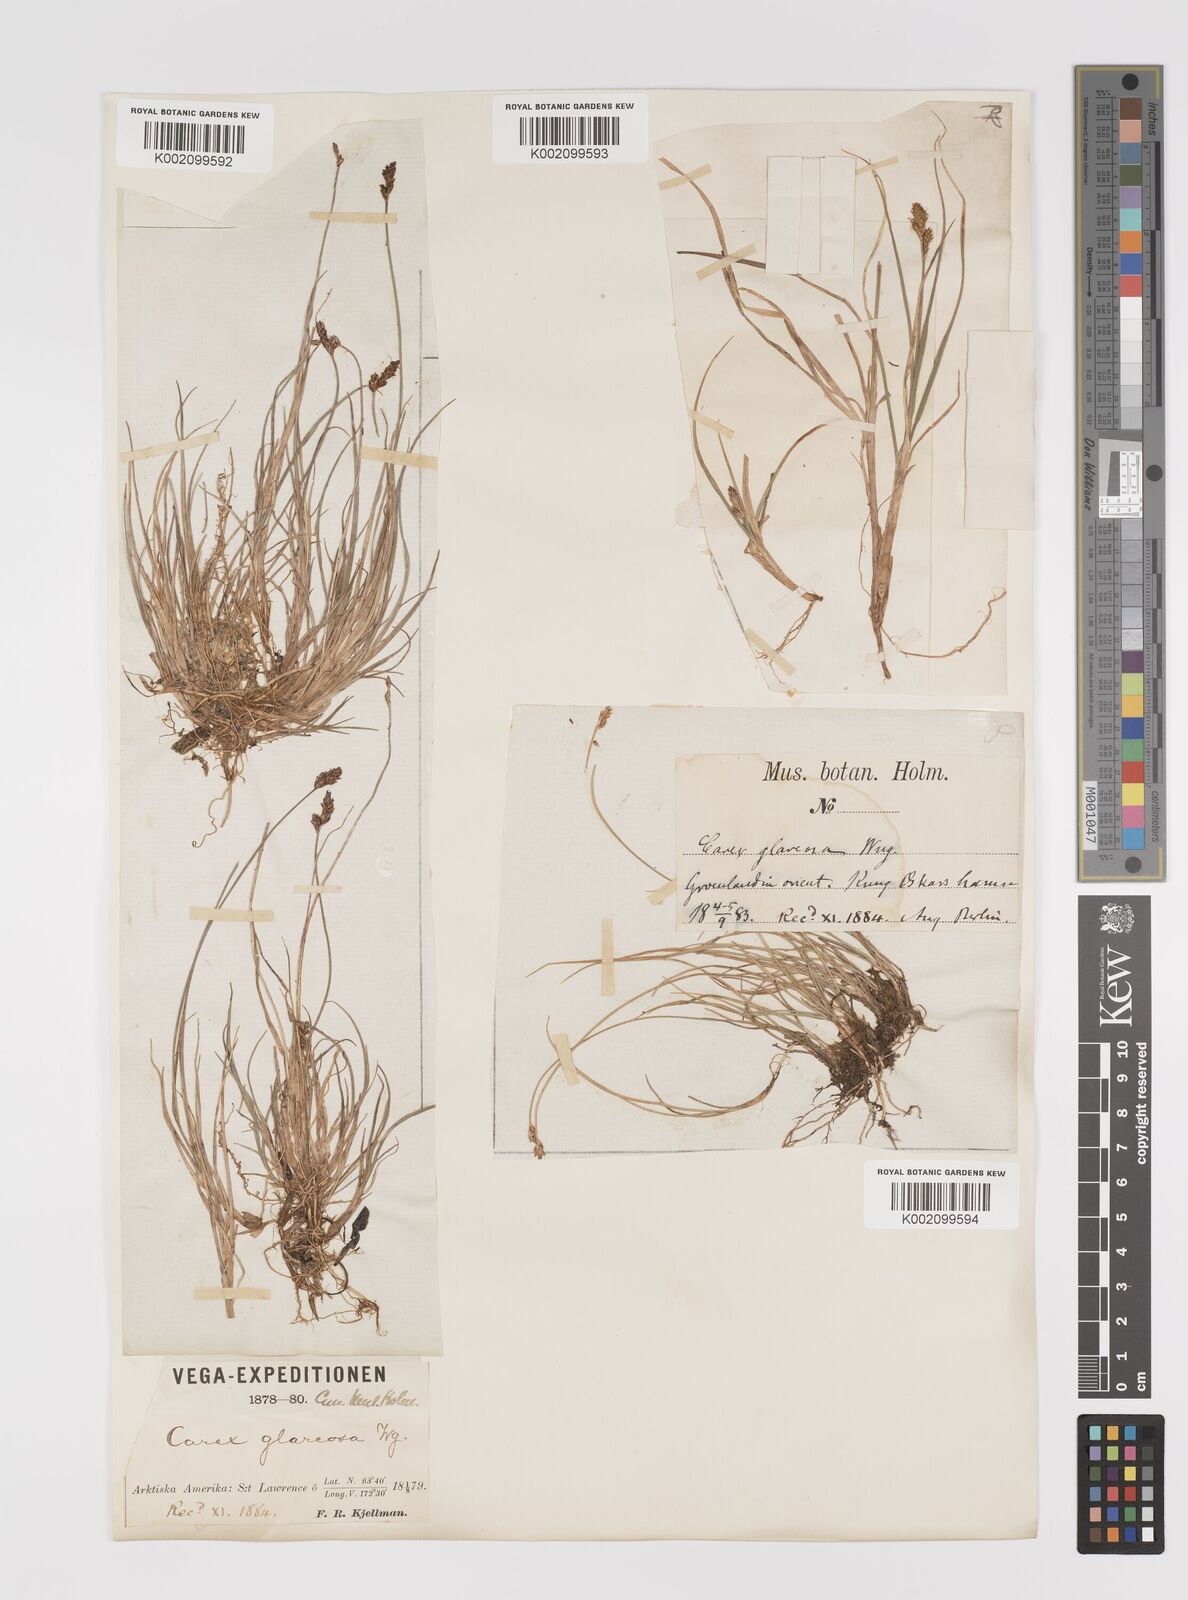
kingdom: Plantae
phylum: Tracheophyta
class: Liliopsida
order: Poales
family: Cyperaceae
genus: Carex
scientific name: Carex glareosa
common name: Clustered sedge
